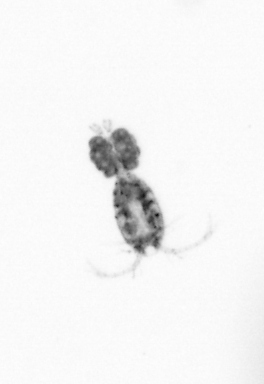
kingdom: Animalia
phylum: Arthropoda
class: Copepoda
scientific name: Copepoda
